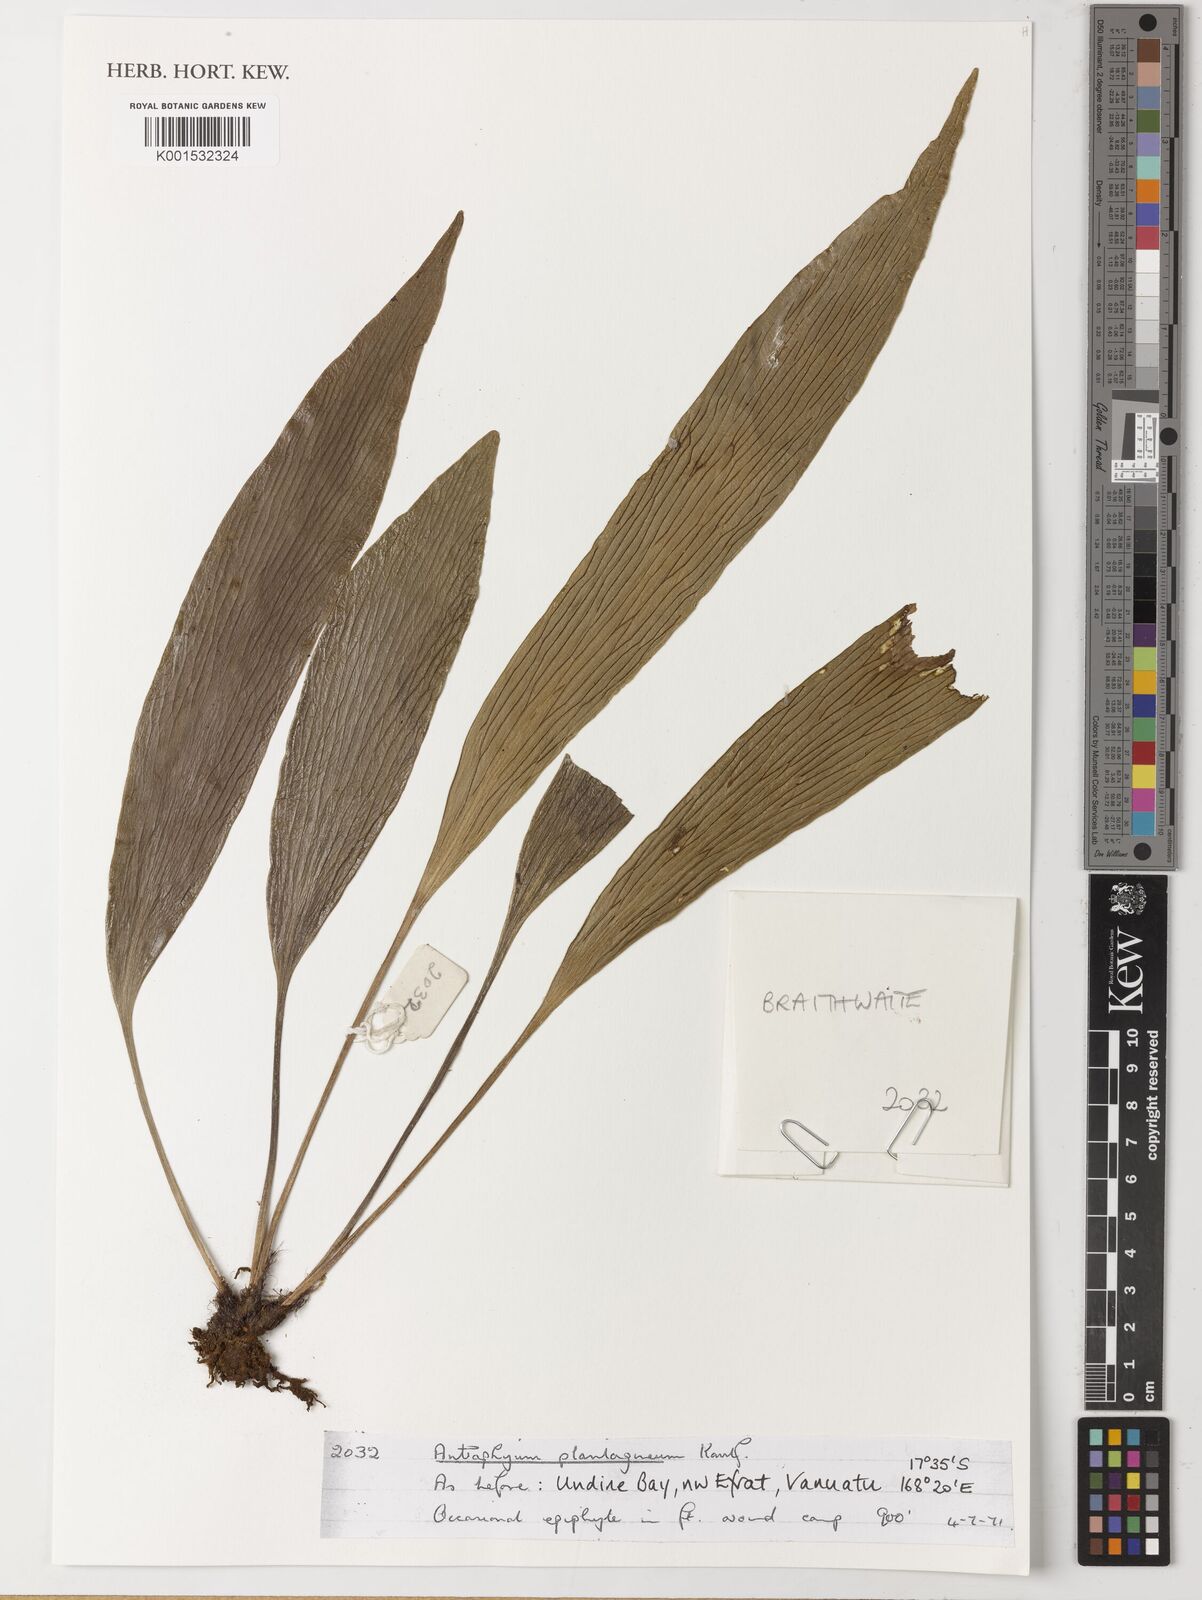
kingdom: Plantae
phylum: Tracheophyta
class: Polypodiopsida
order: Polypodiales
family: Pteridaceae
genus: Antrophyum
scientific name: Antrophyum plantagineum
